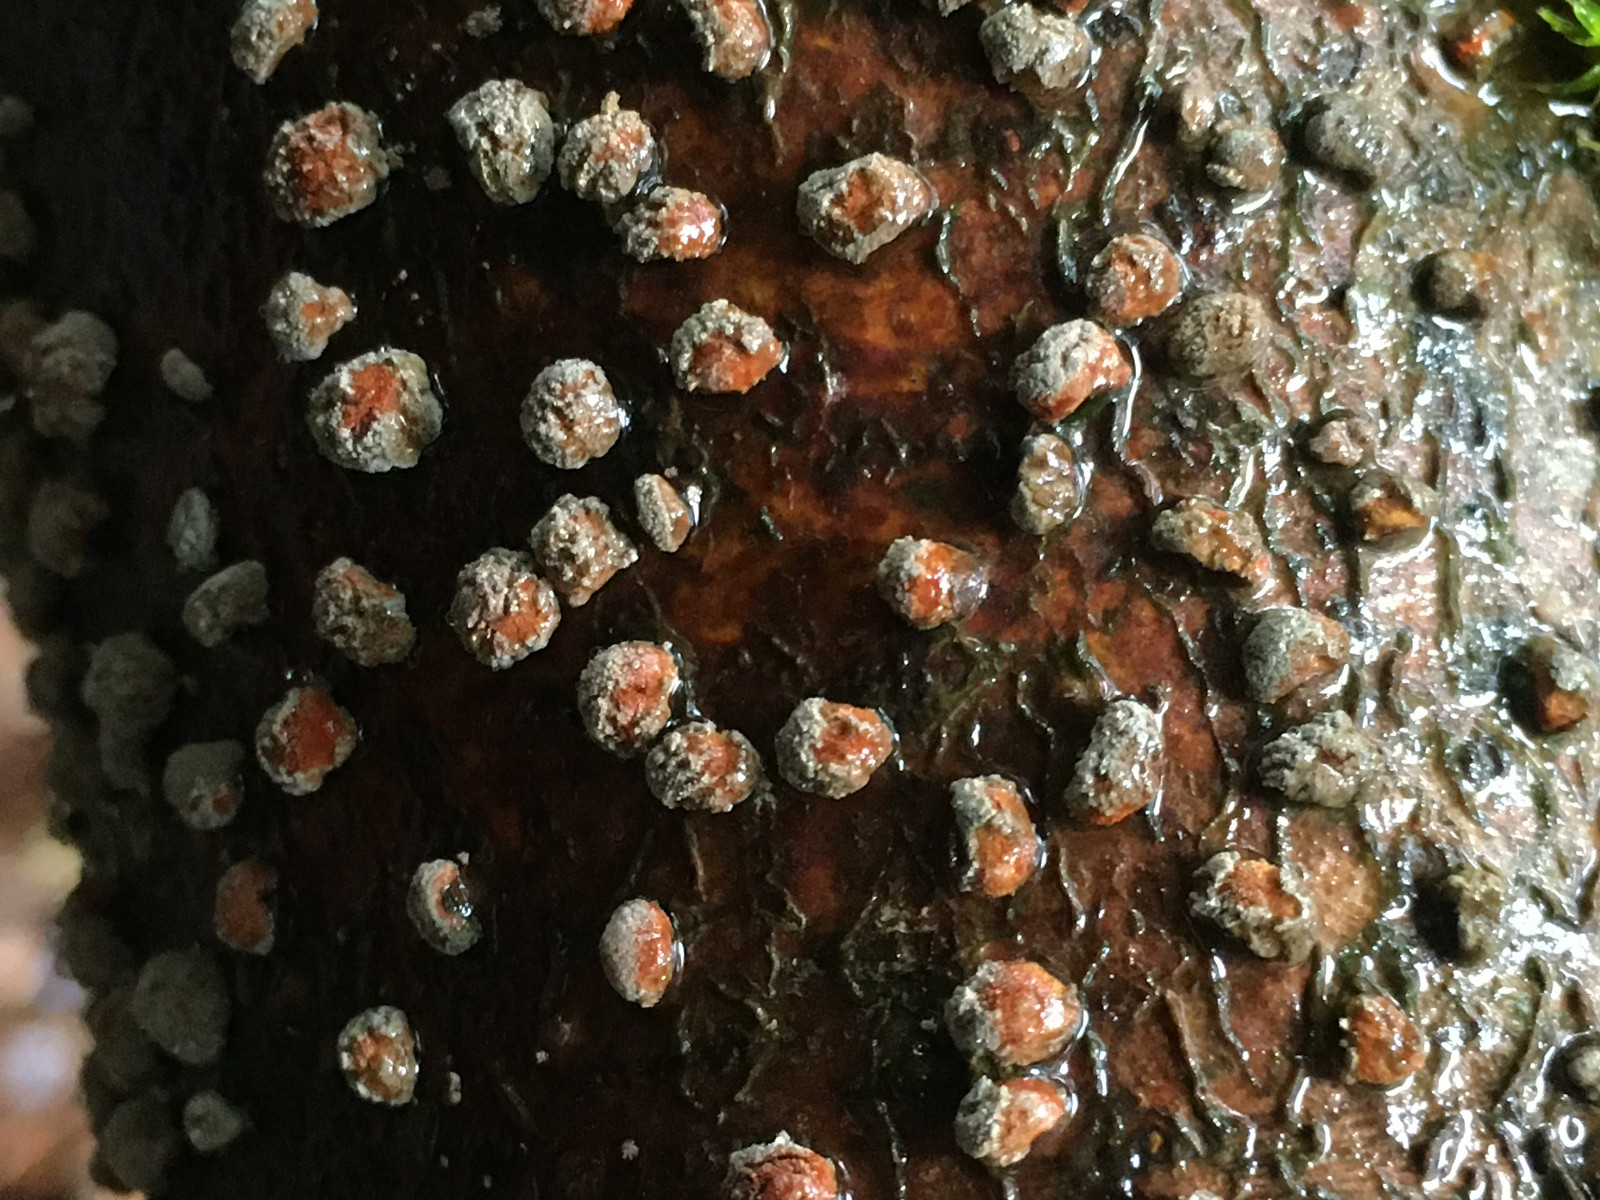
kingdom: Fungi
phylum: Ascomycota
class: Sordariomycetes
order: Xylariales
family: Hypoxylaceae
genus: Hypoxylon
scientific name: Hypoxylon fragiforme
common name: kuljordbær
